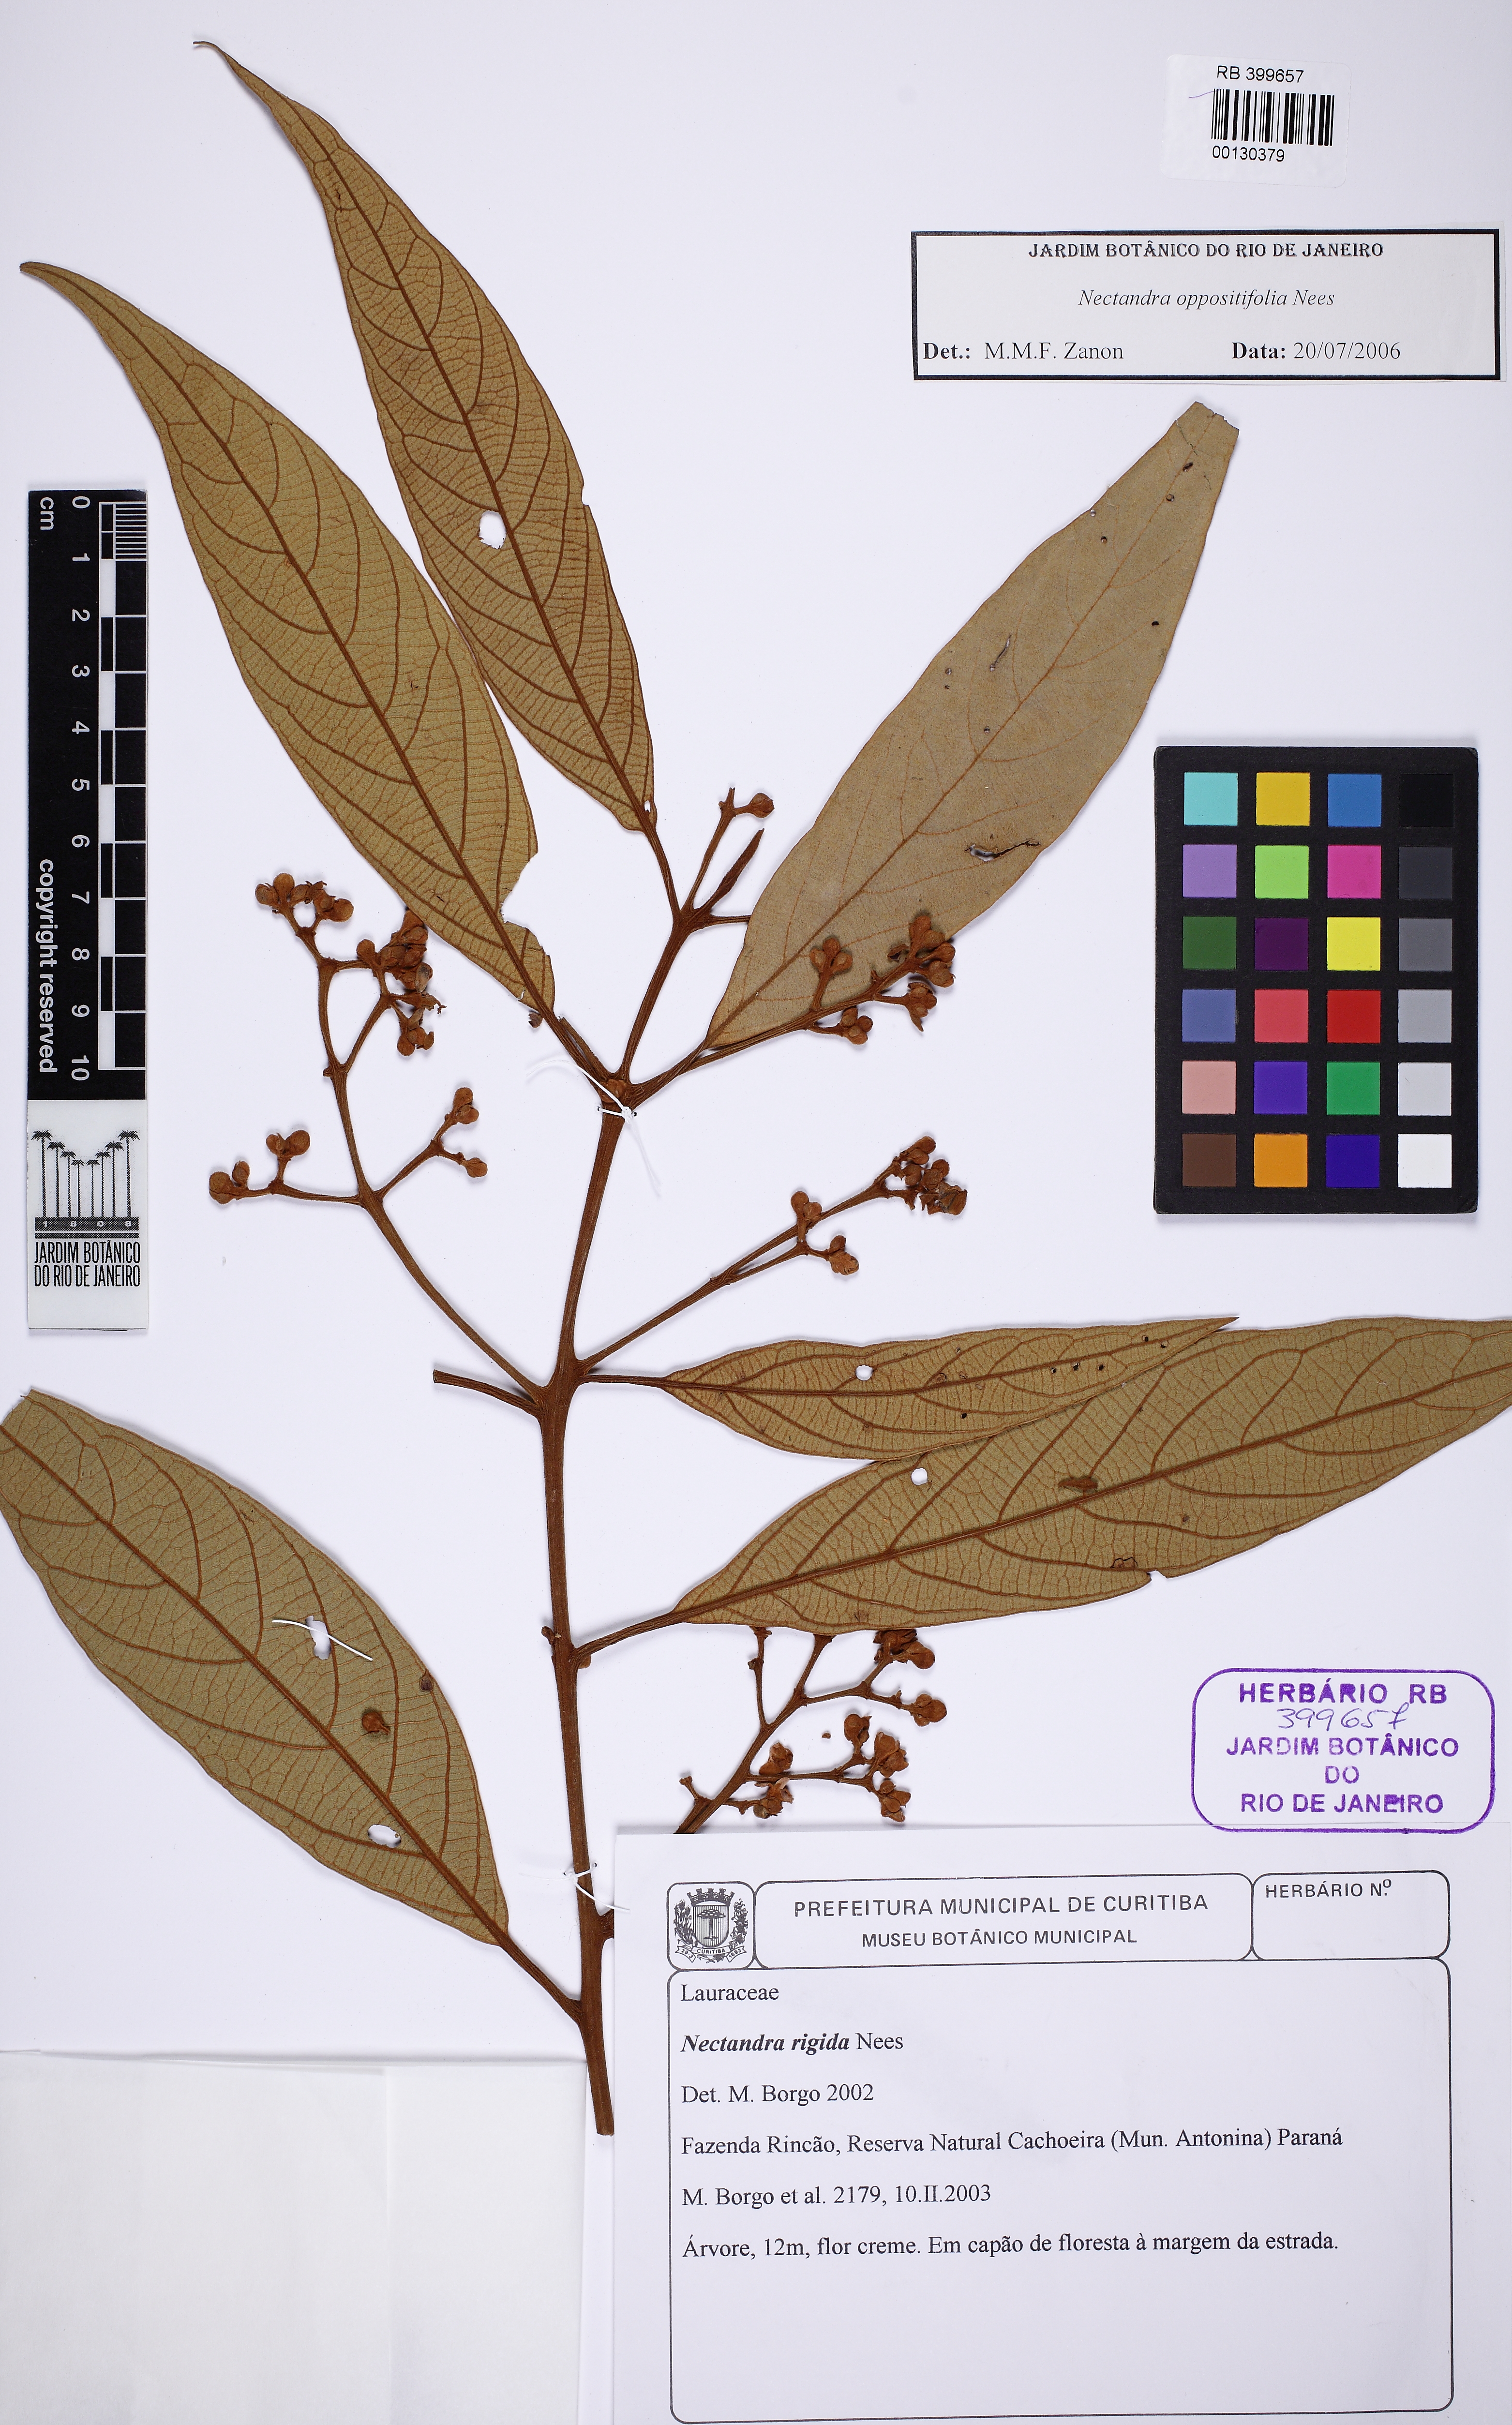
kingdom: Plantae
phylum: Tracheophyta
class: Magnoliopsida
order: Laurales
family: Lauraceae
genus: Nectandra
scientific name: Nectandra oppositifolia
